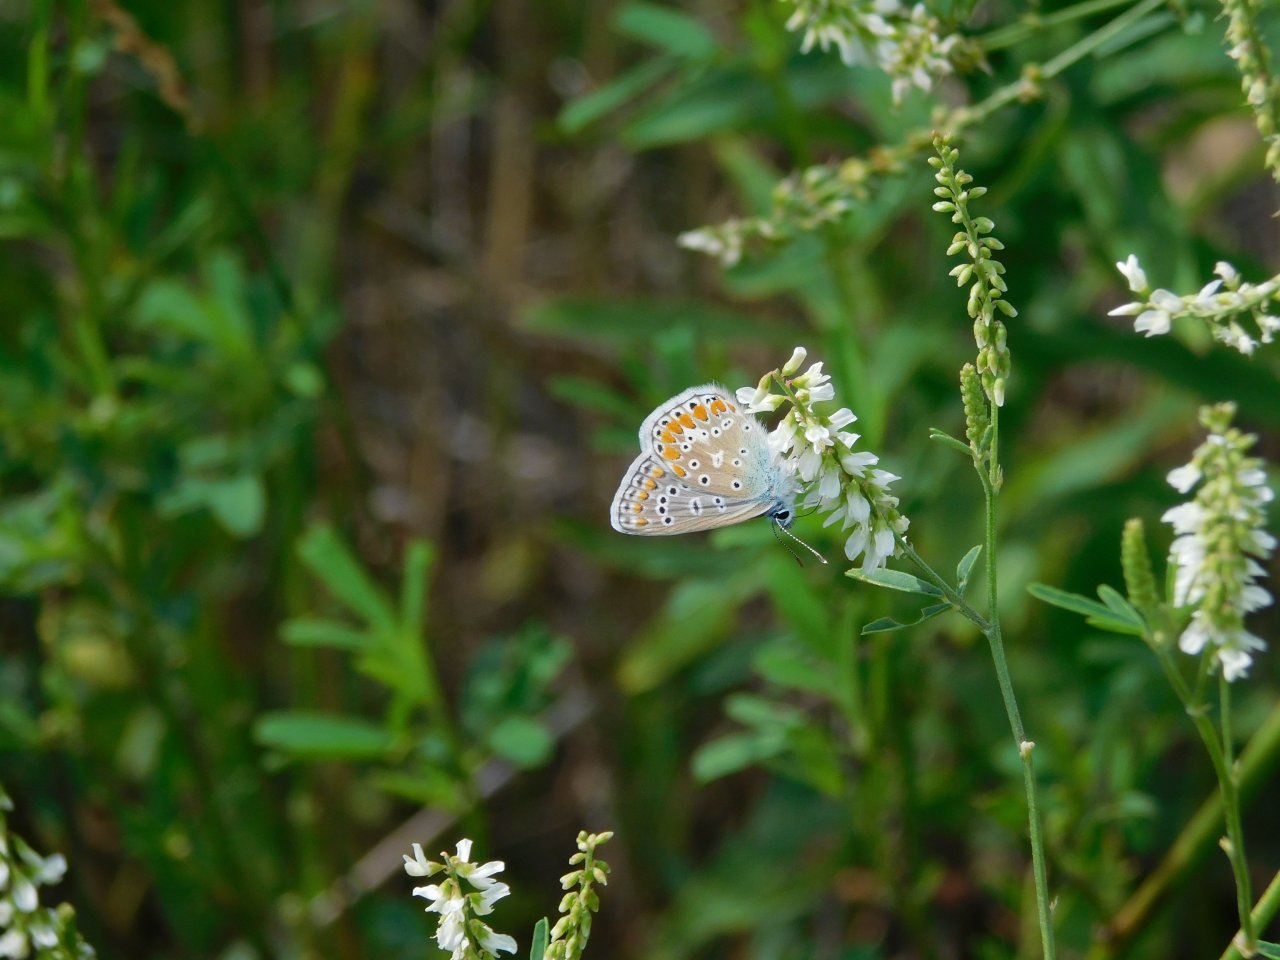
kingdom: Animalia
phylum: Arthropoda
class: Insecta
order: Lepidoptera
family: Lycaenidae
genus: Polyommatus
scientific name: Polyommatus icarus
